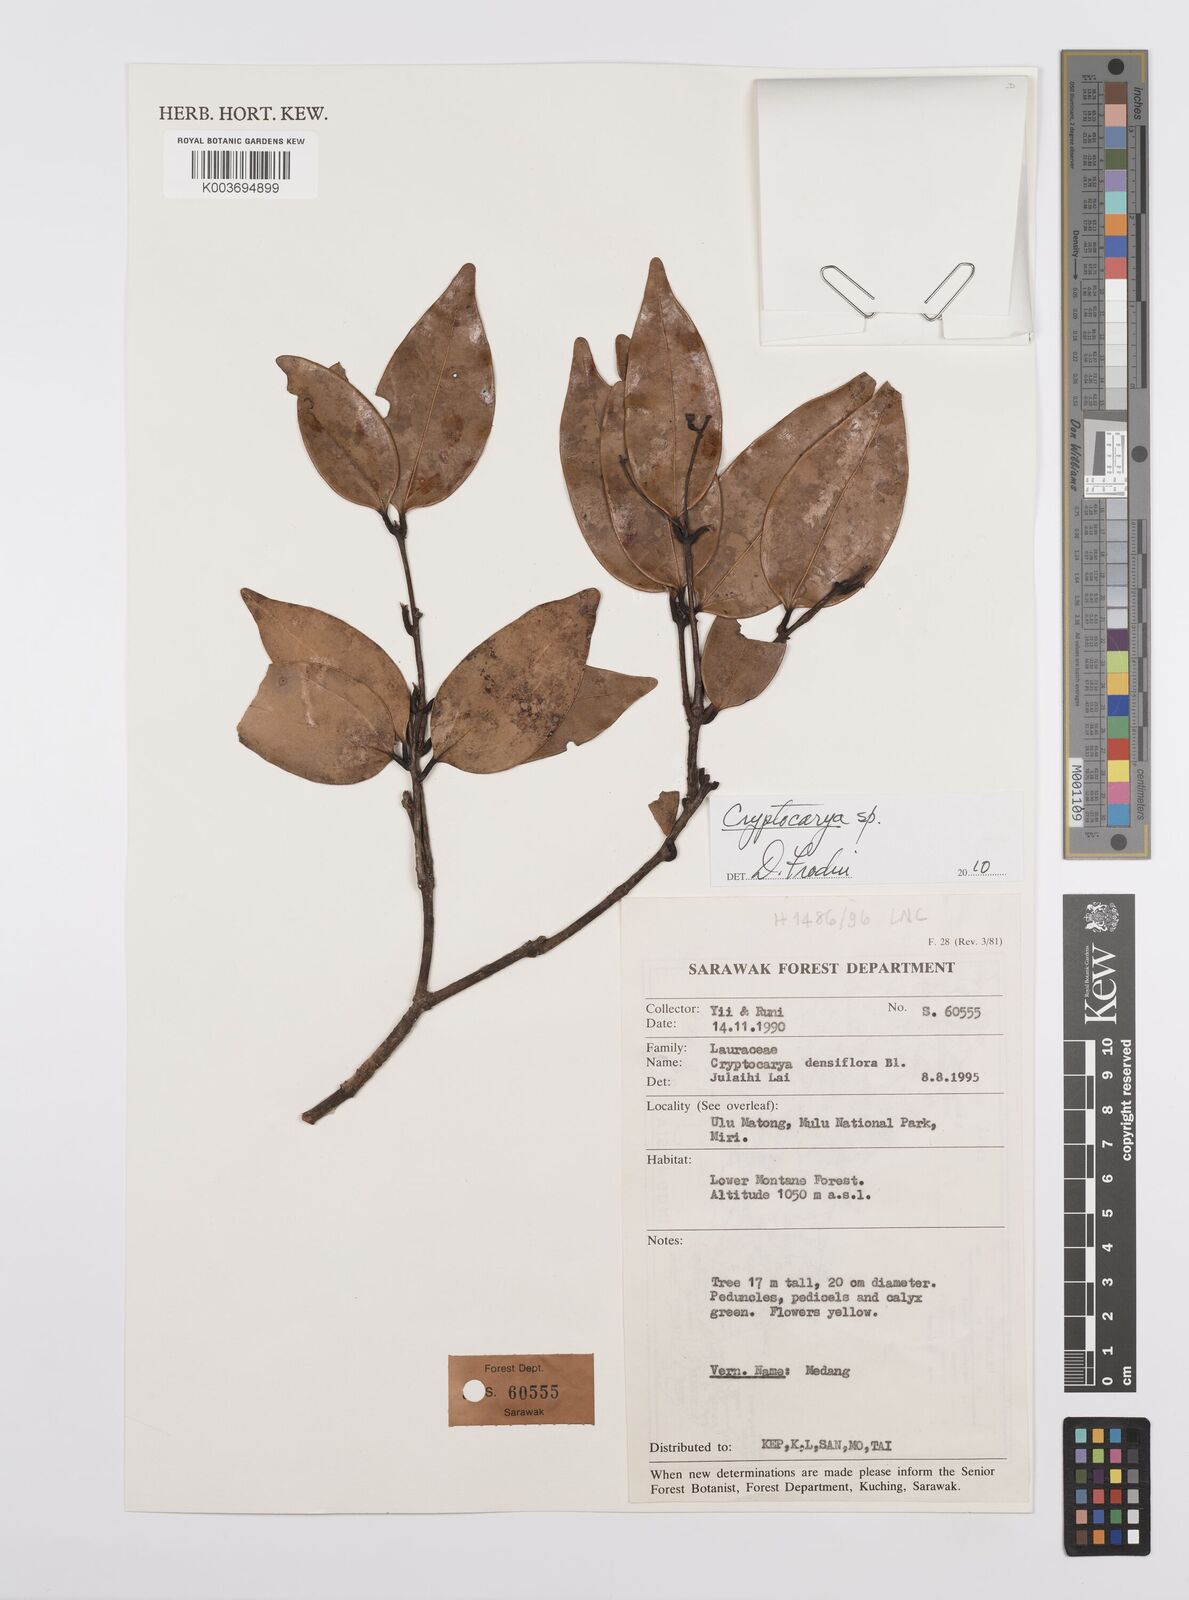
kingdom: Plantae
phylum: Tracheophyta
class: Magnoliopsida
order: Laurales
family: Lauraceae
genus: Cryptocarya
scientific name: Cryptocarya
